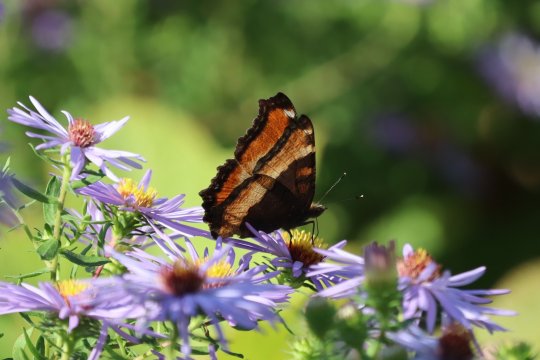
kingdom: Animalia
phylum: Arthropoda
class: Insecta
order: Lepidoptera
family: Nymphalidae
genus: Aglais
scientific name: Aglais milberti
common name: Milbert's Tortoiseshell
